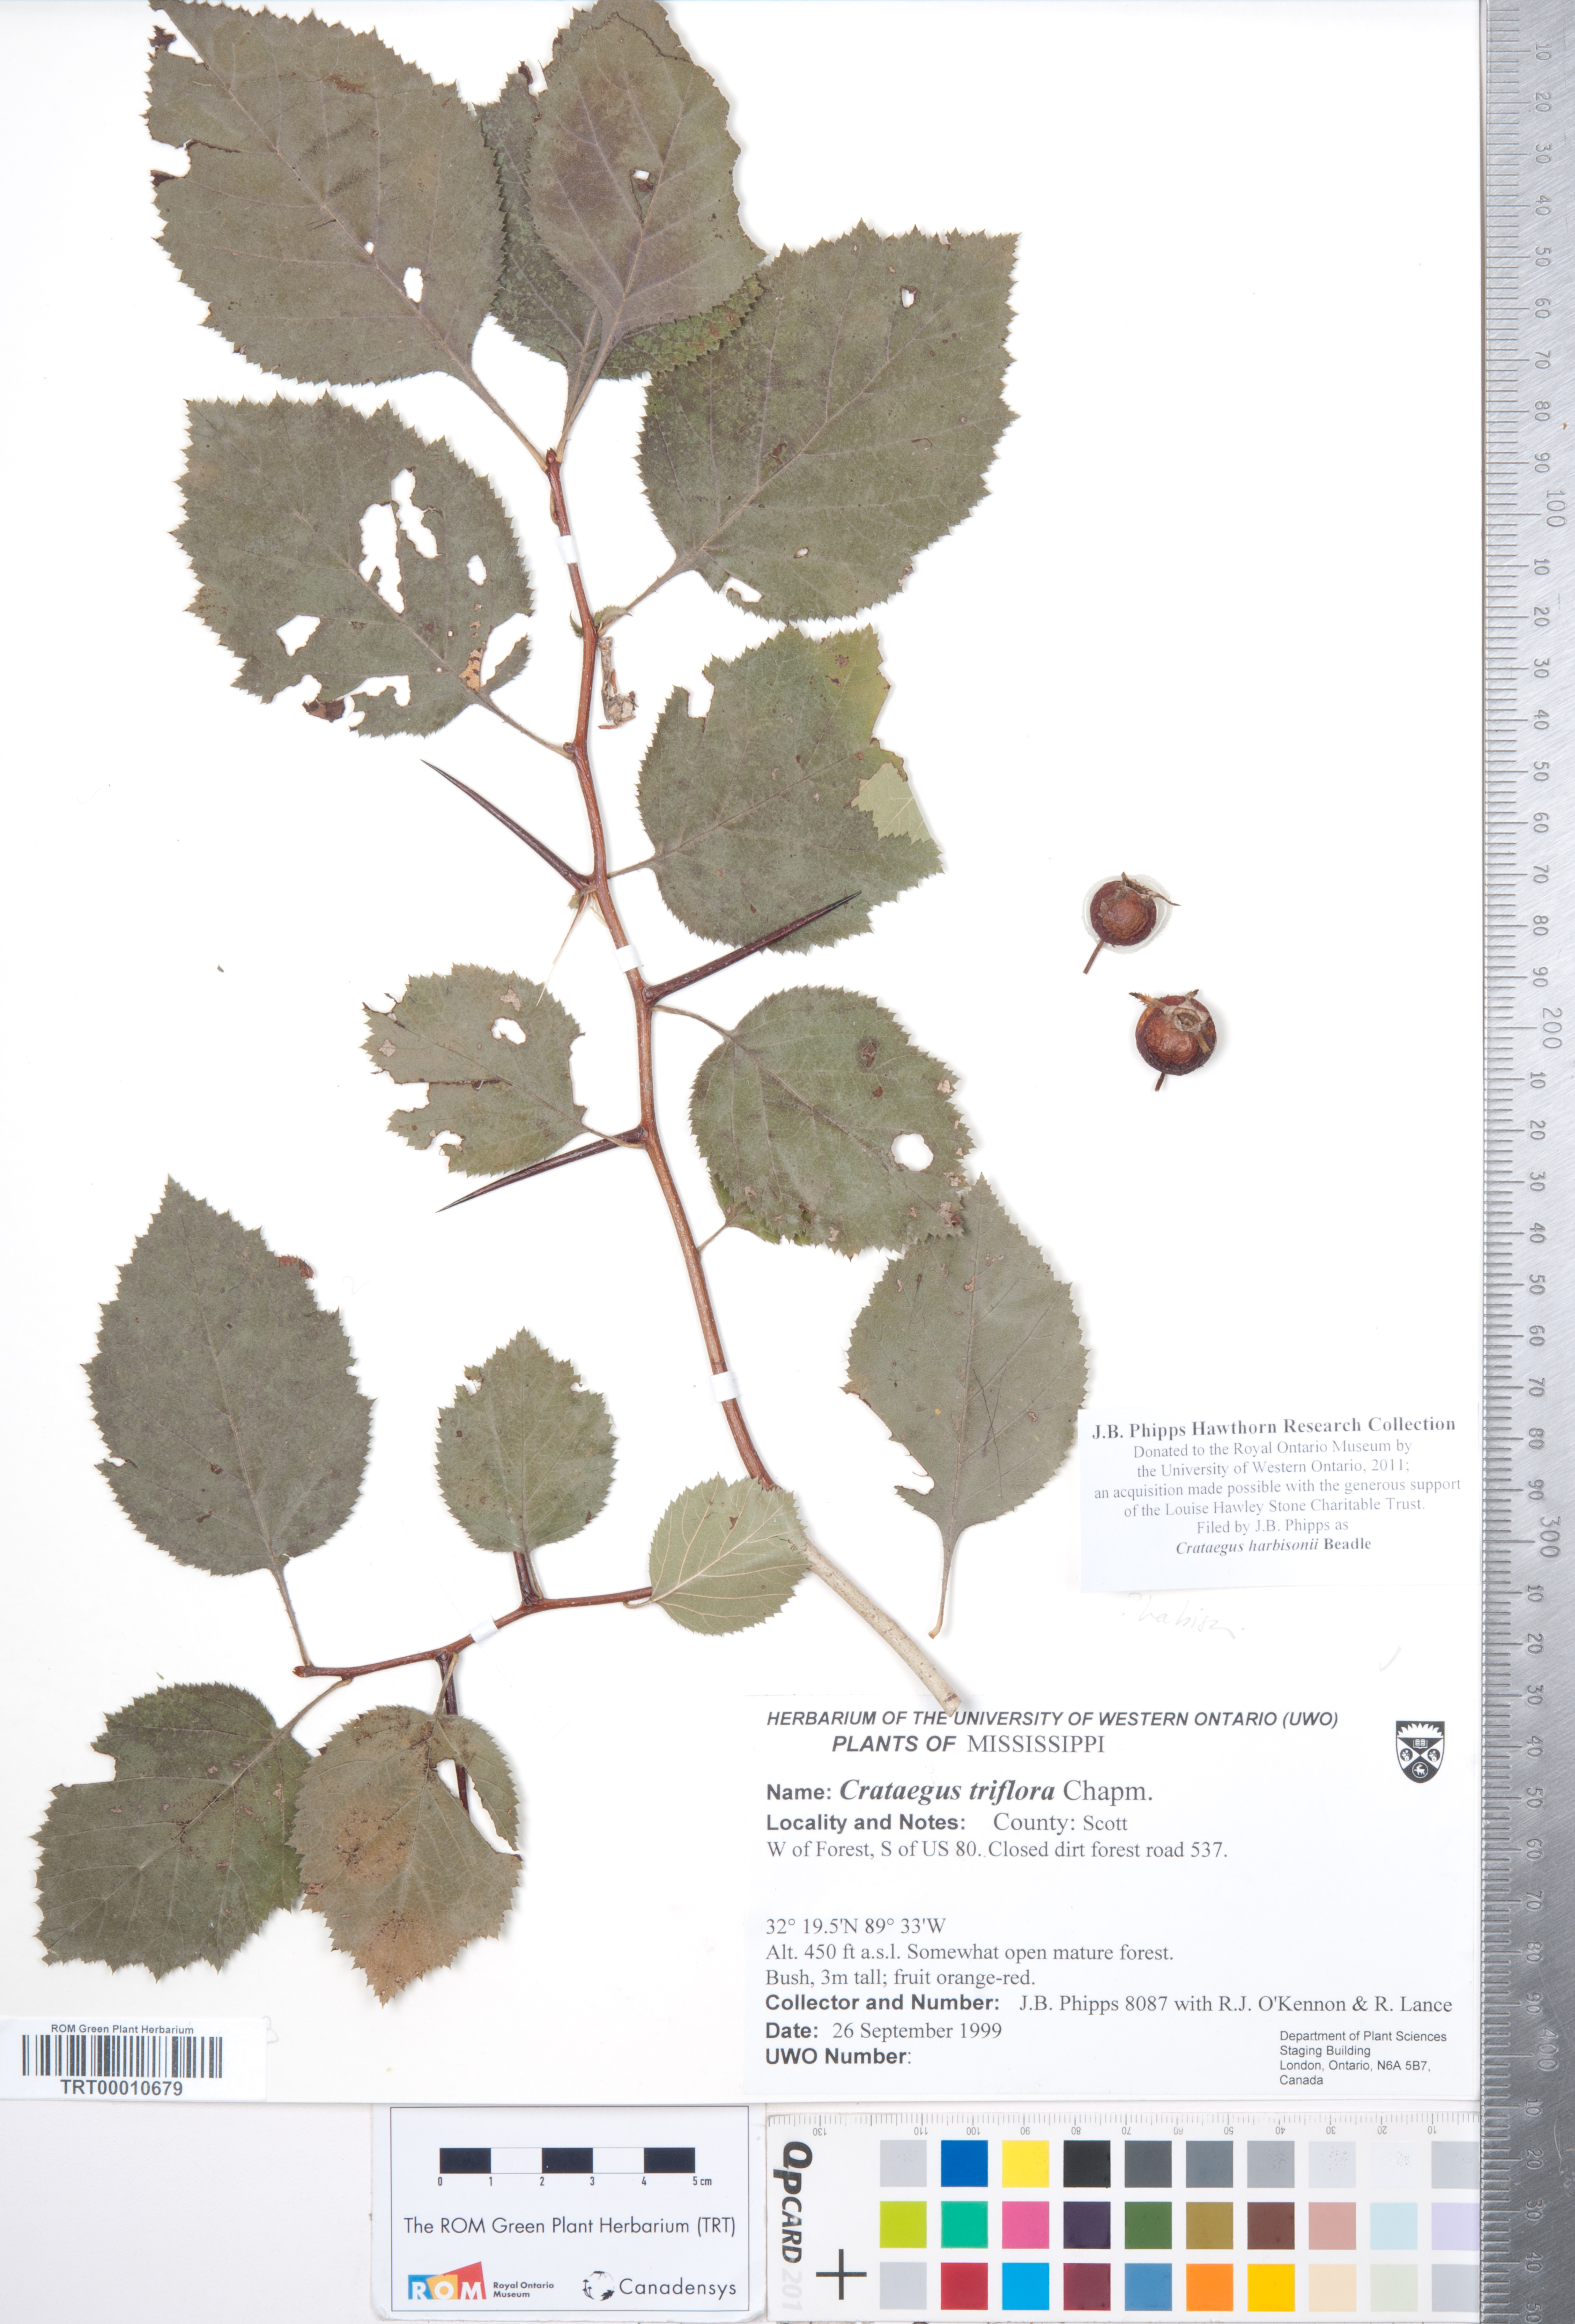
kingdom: Plantae
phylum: Tracheophyta
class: Magnoliopsida
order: Rosales
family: Rosaceae
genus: Crataegus
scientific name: Crataegus harbisonii
